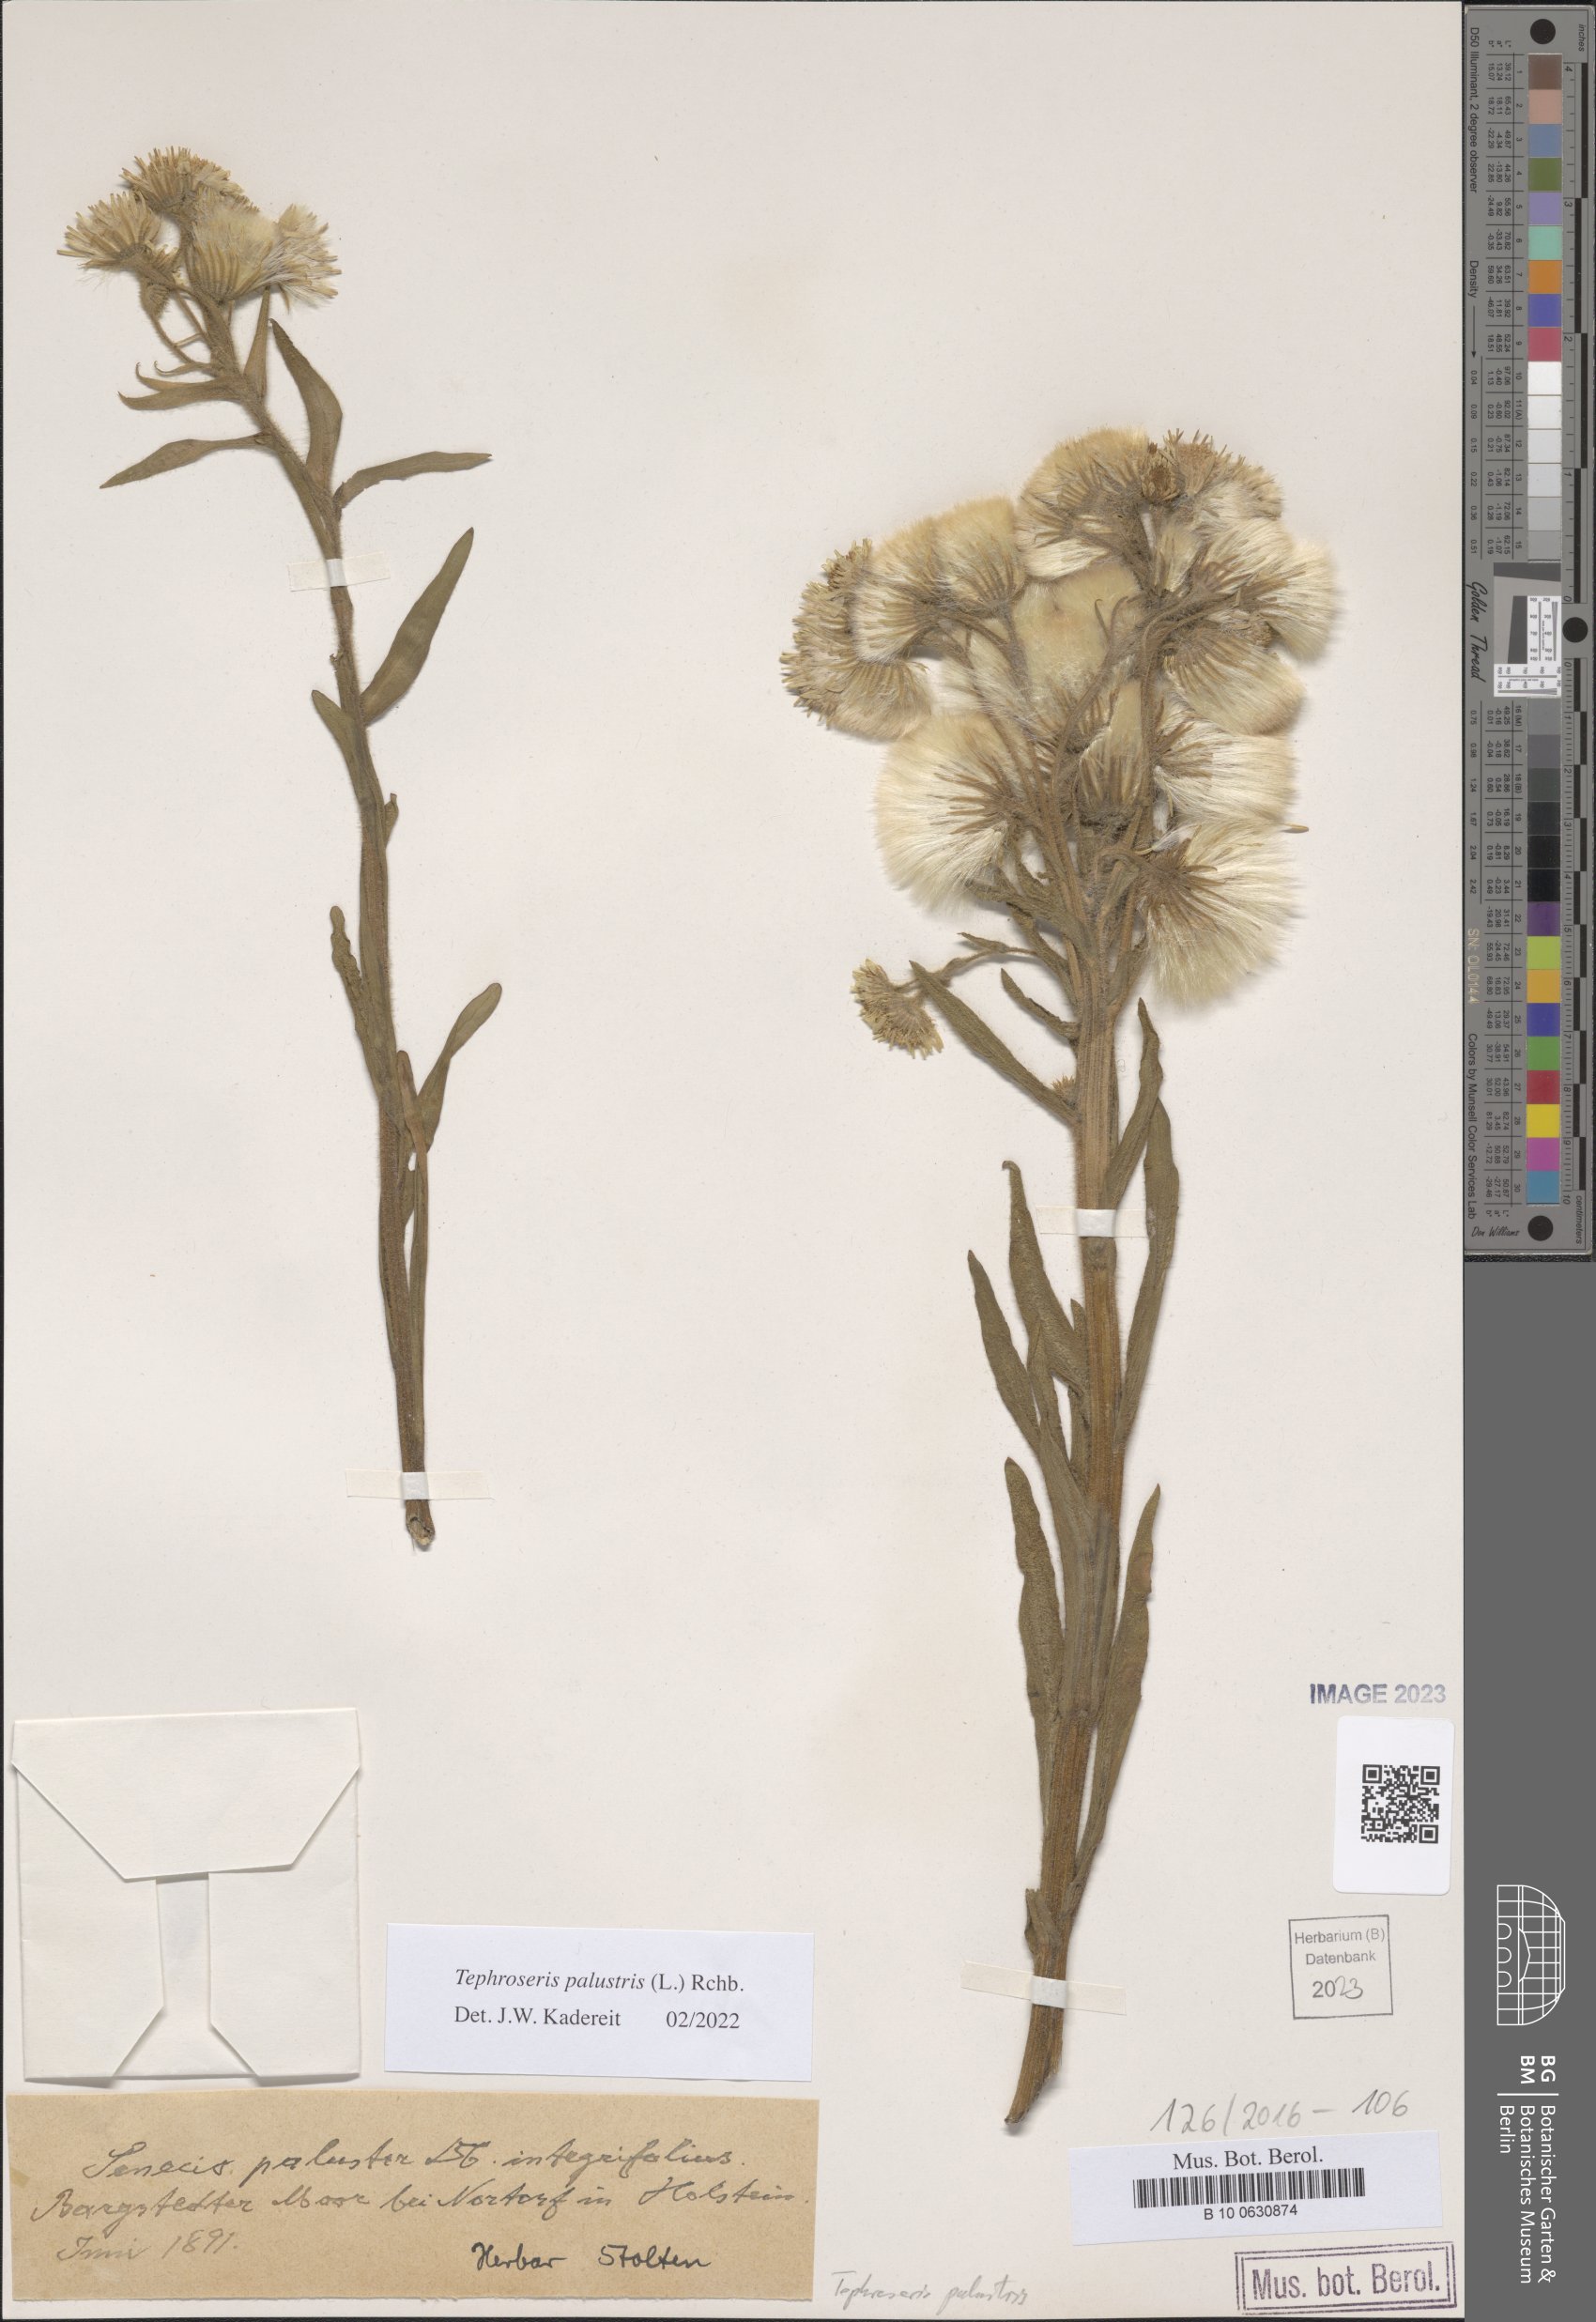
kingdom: Plantae
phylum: Tracheophyta
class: Magnoliopsida
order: Asterales
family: Asteraceae
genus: Tephroseris
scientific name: Tephroseris palustris
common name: Marsh fleawort
